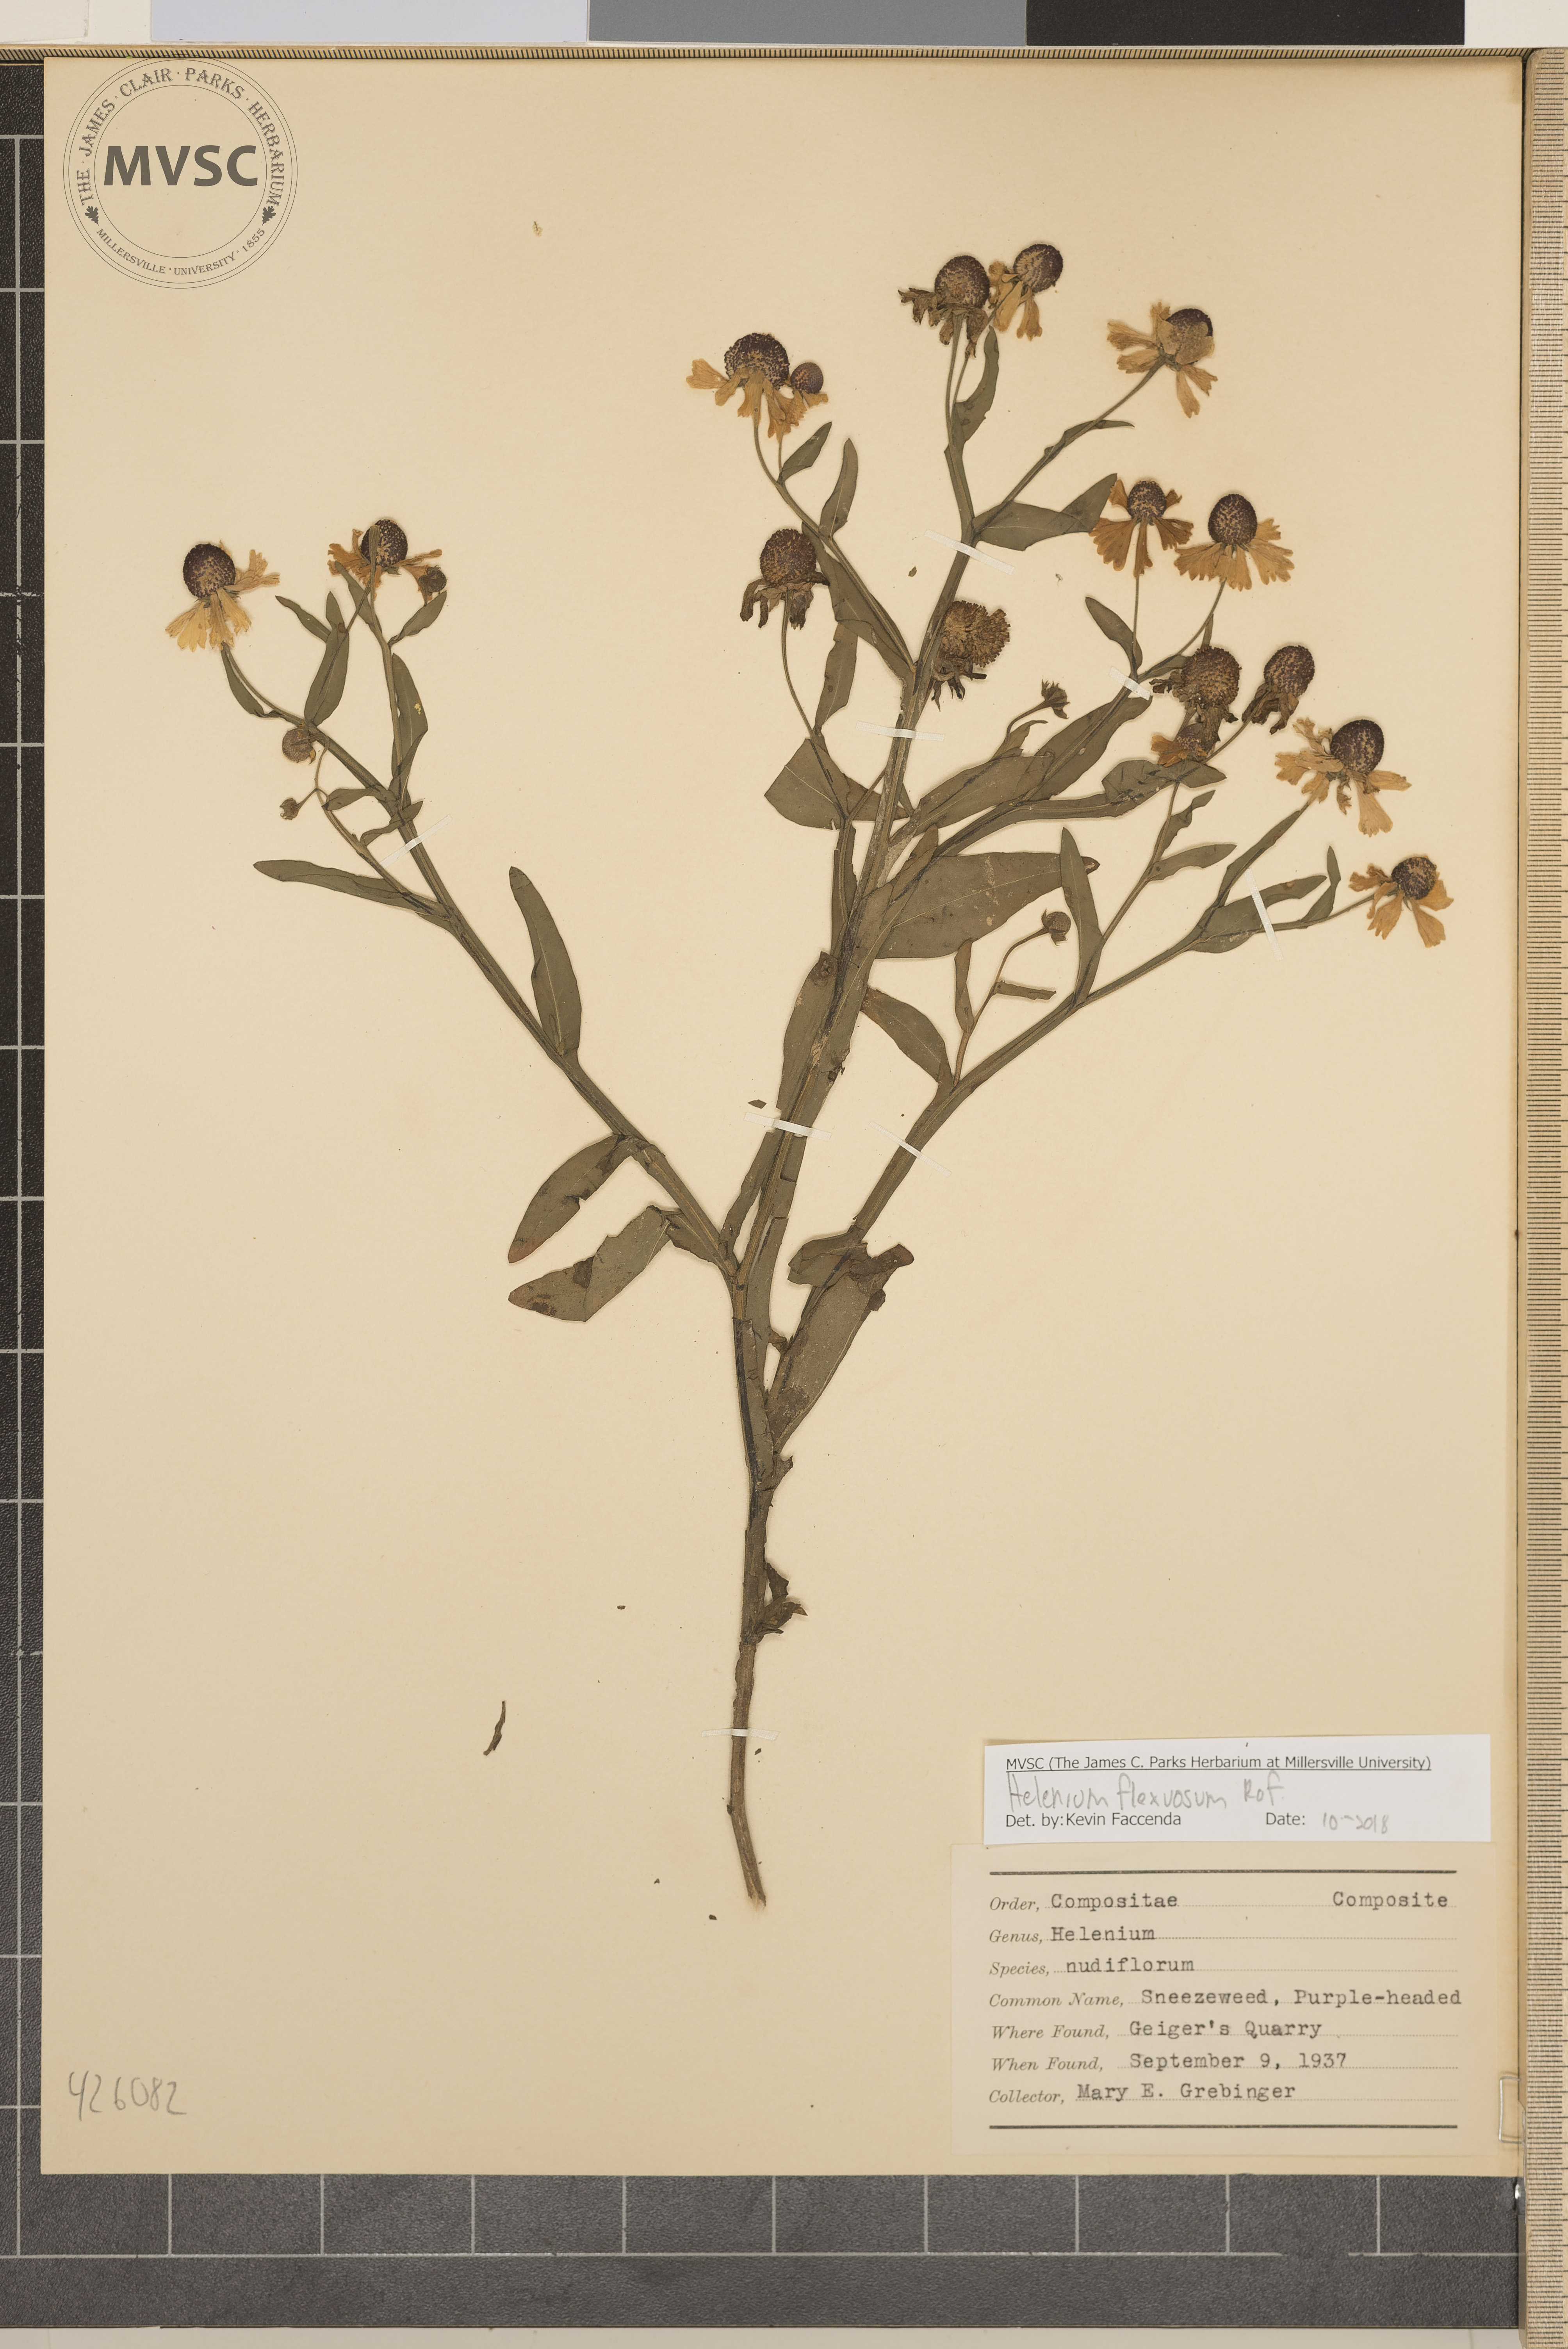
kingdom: Plantae
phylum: Tracheophyta
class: Magnoliopsida
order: Asterales
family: Asteraceae
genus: Helenium
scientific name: Helenium flexuosum
